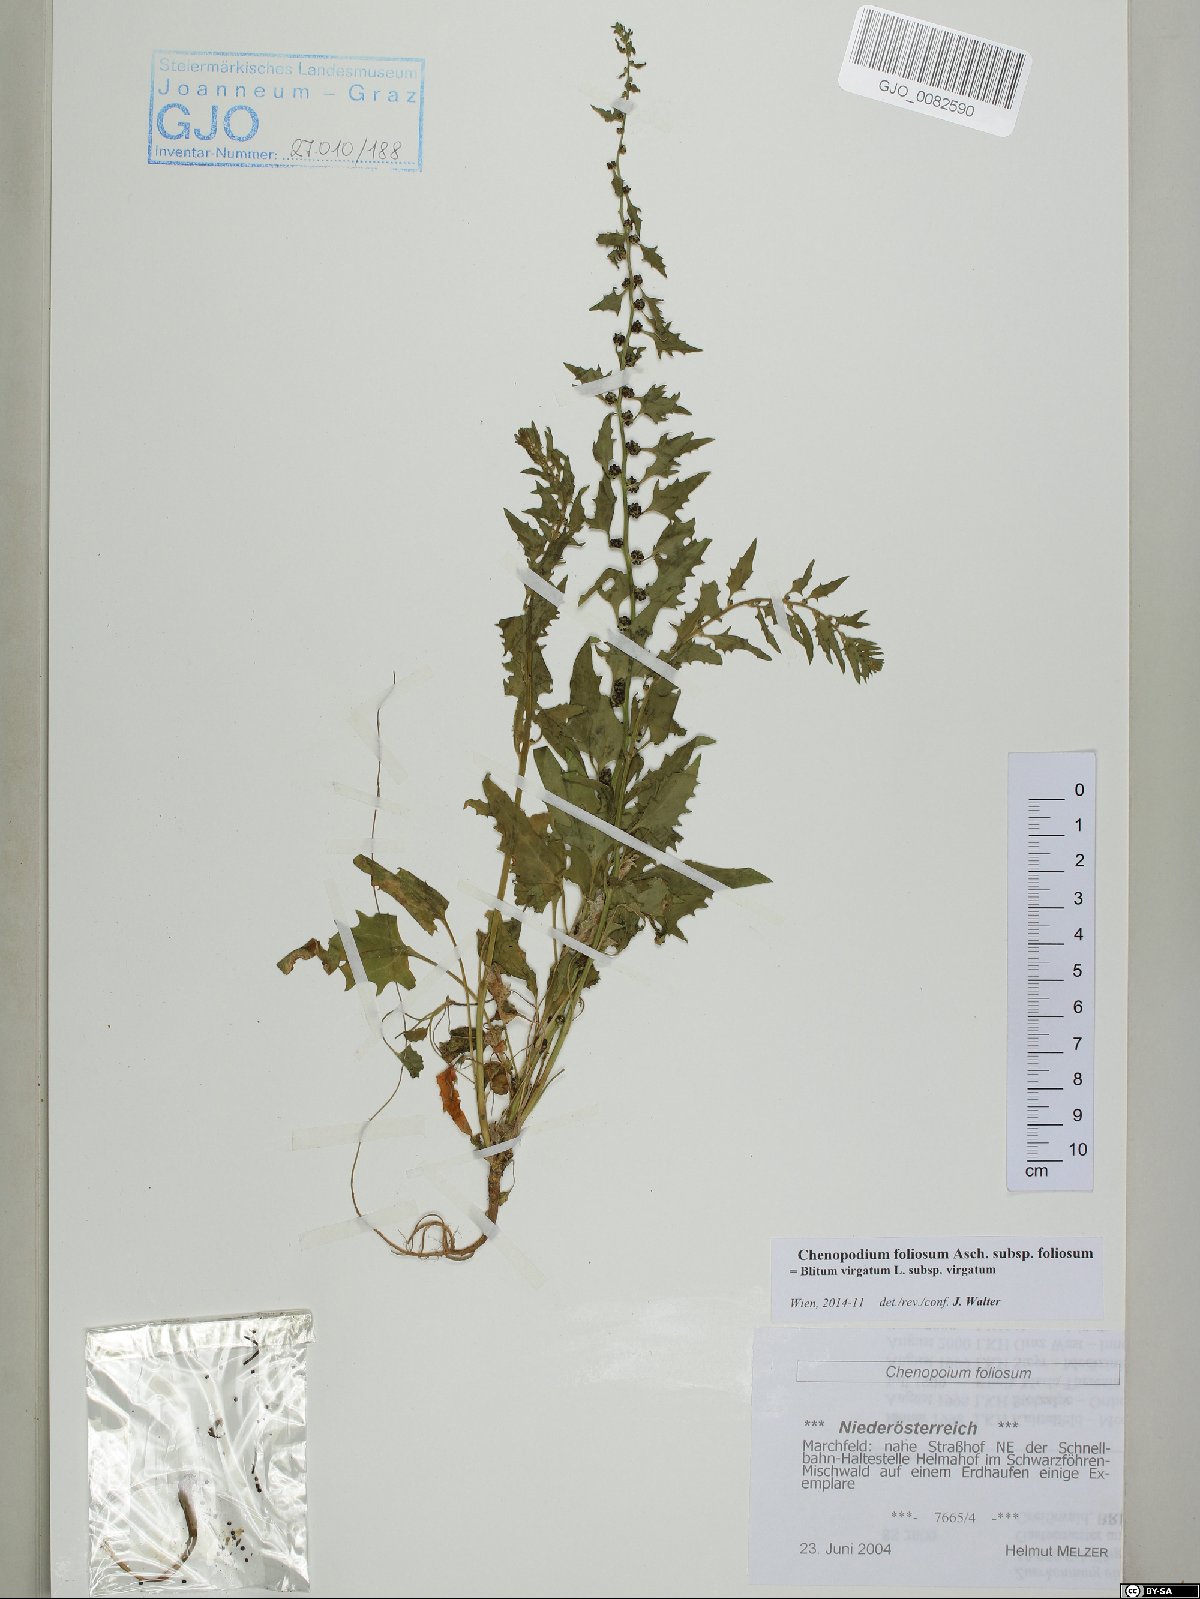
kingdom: Plantae
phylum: Tracheophyta
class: Magnoliopsida
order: Caryophyllales
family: Amaranthaceae
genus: Blitum
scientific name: Blitum virgatum
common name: Strawberry goosefoot
